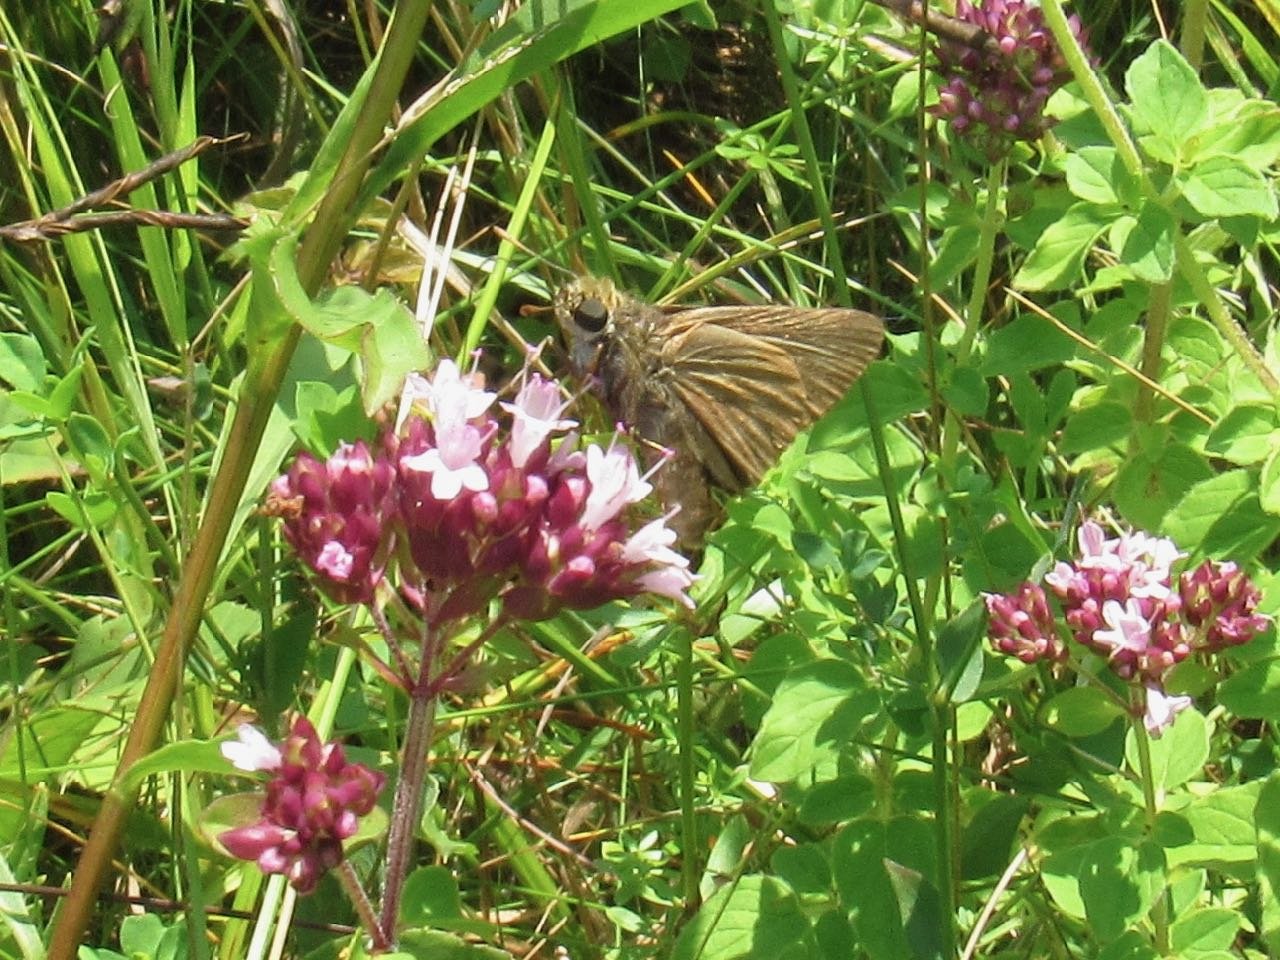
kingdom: Animalia
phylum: Arthropoda
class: Insecta
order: Lepidoptera
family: Hesperiidae
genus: Euphyes
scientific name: Euphyes vestris
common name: Dun Skipper
